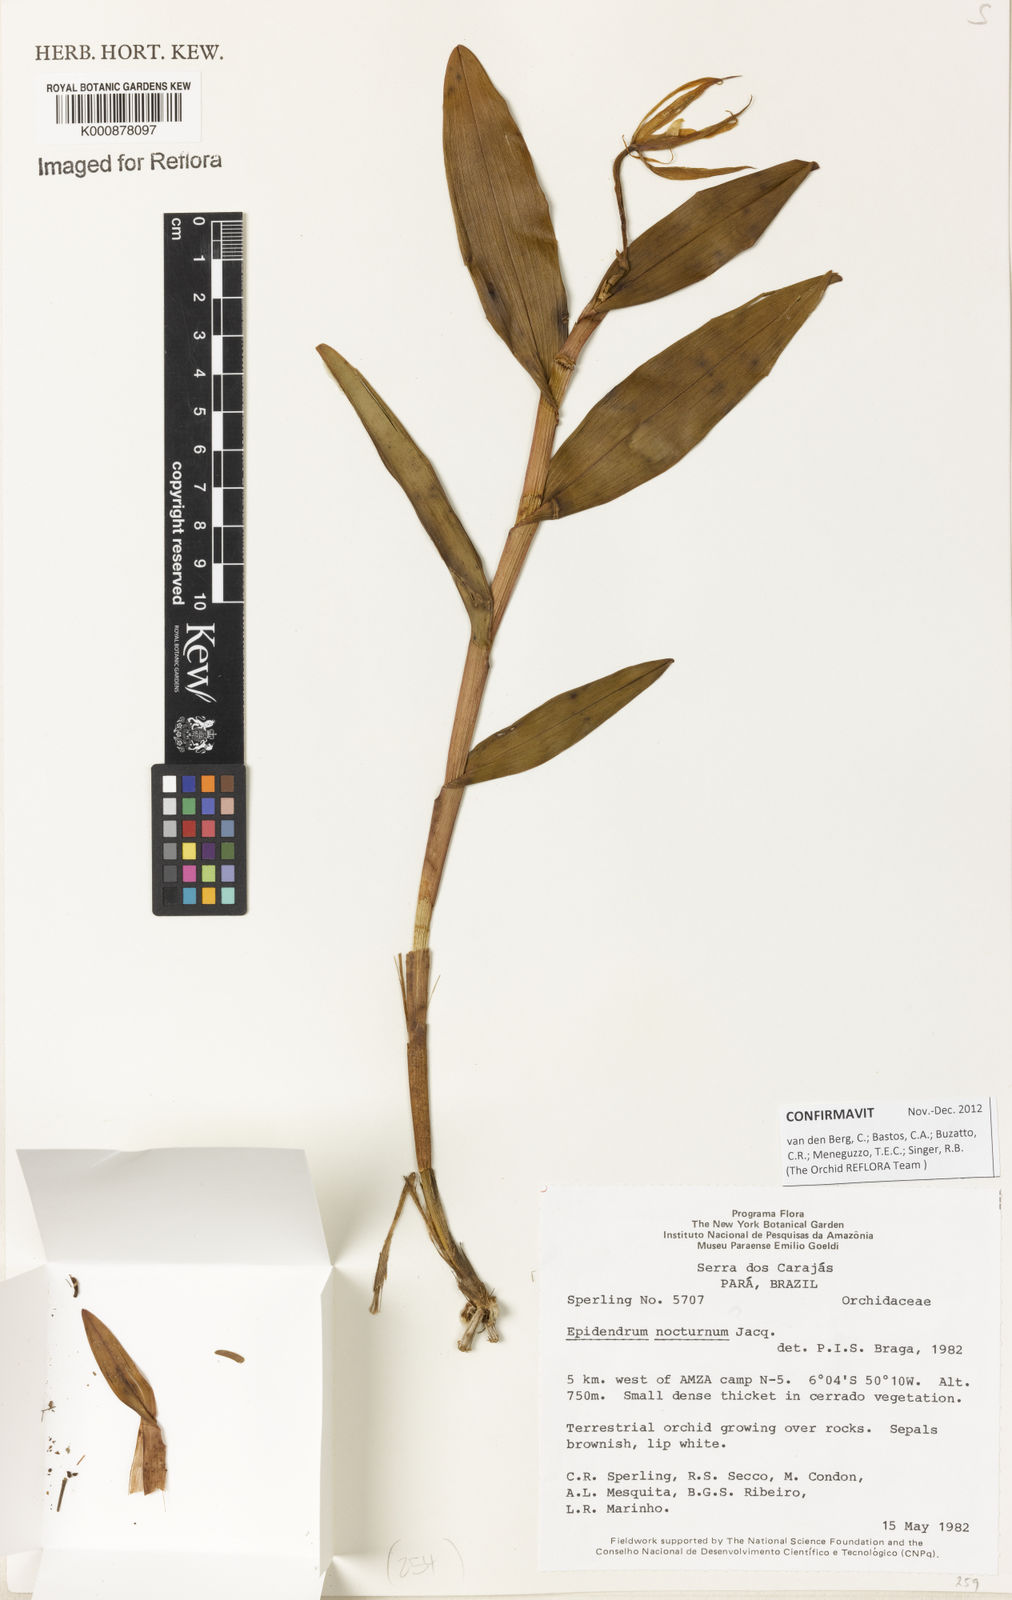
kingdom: Plantae
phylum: Tracheophyta
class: Liliopsida
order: Asparagales
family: Orchidaceae
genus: Epidendrum
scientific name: Epidendrum nocturnum
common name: Night scented orchid
